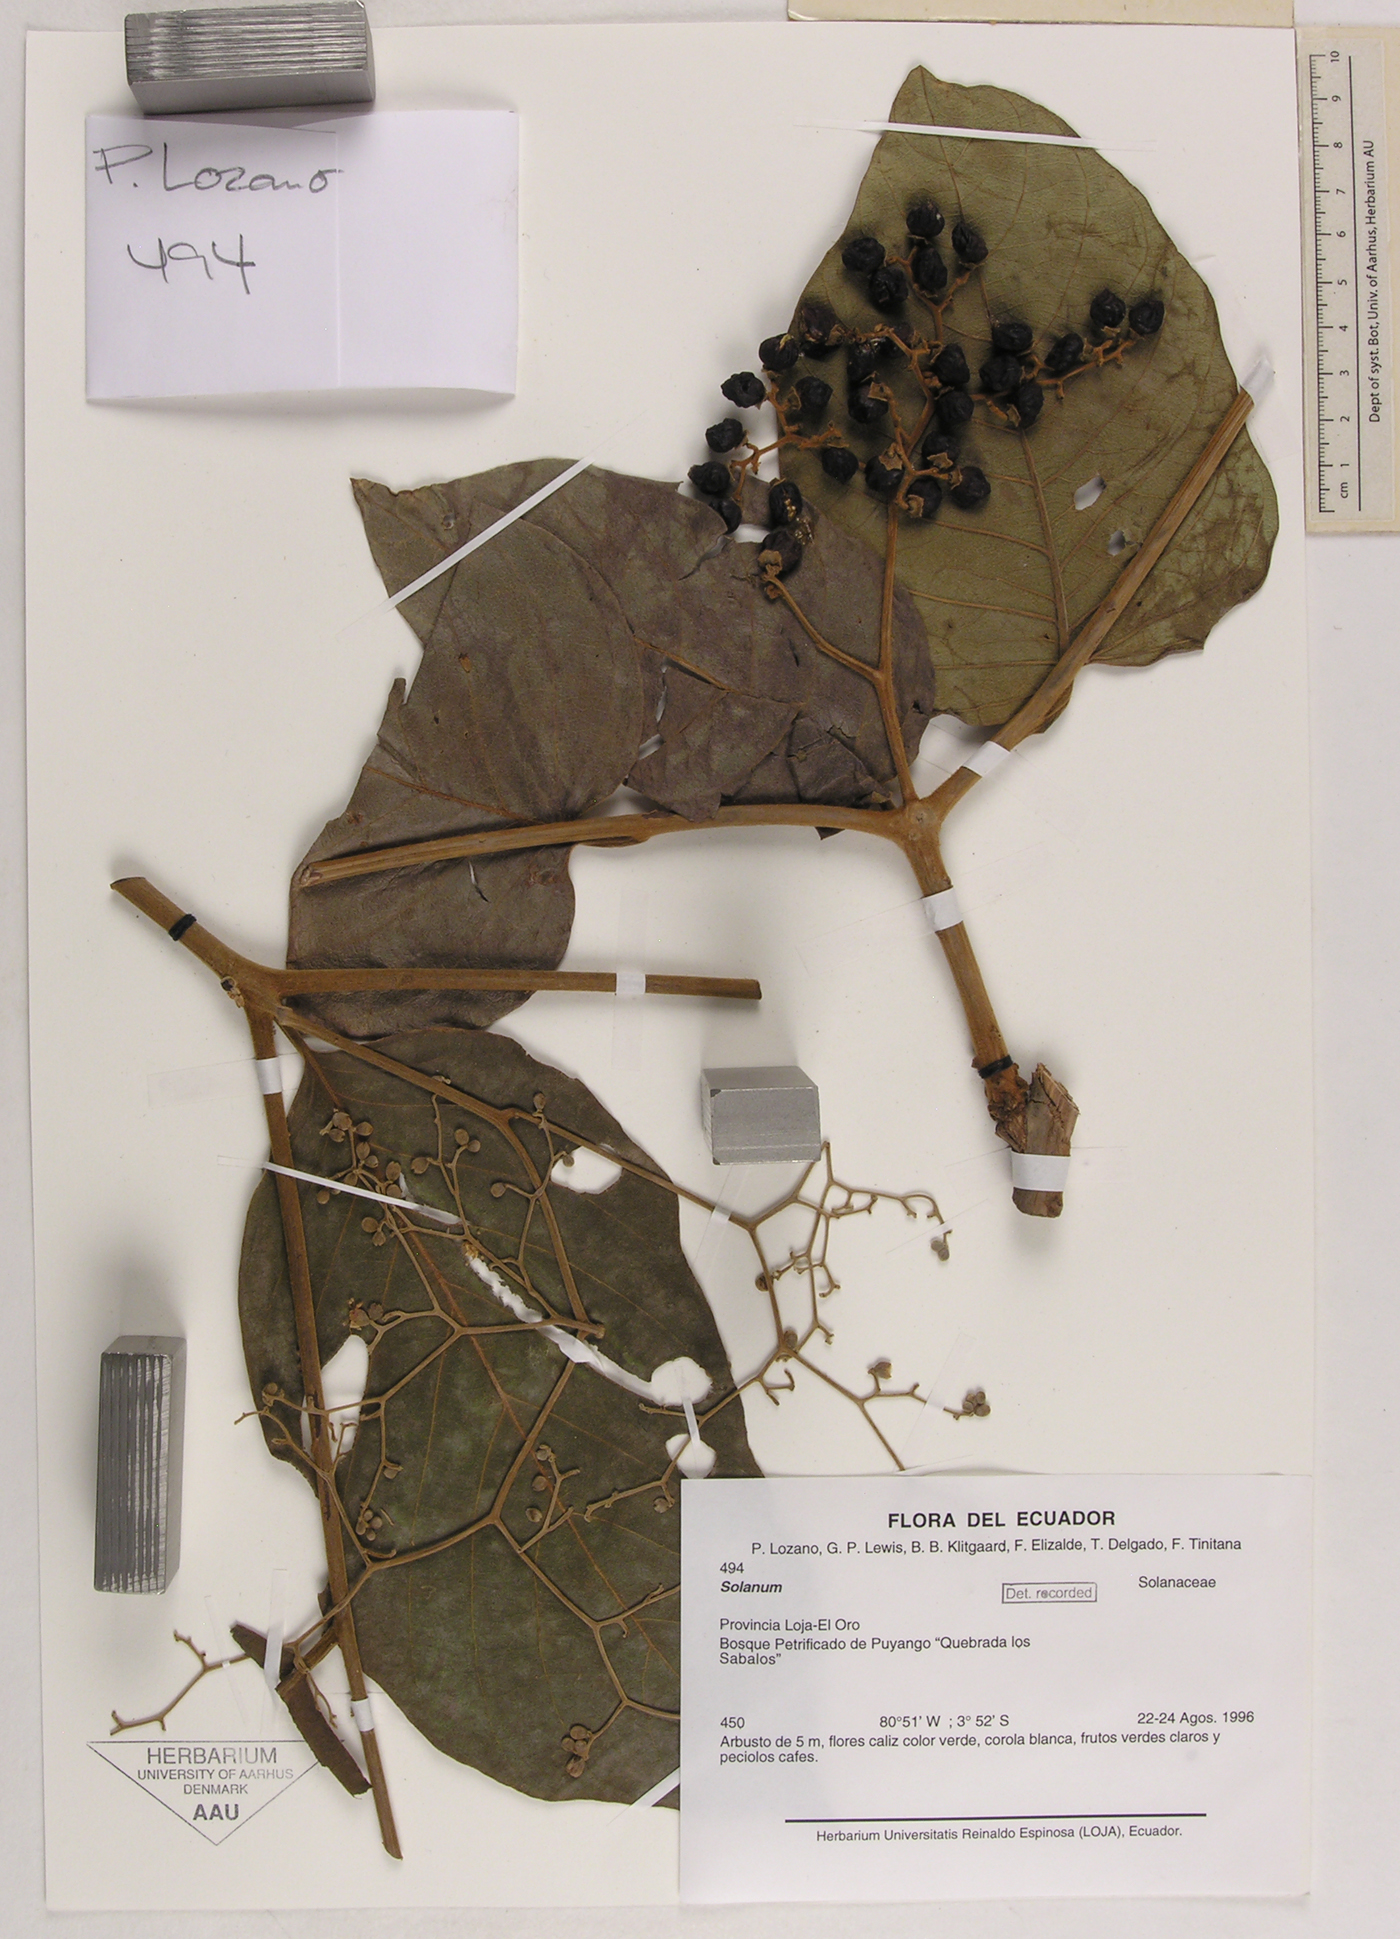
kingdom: Plantae
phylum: Tracheophyta
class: Magnoliopsida
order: Solanales
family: Solanaceae
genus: Solanum
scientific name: Solanum
